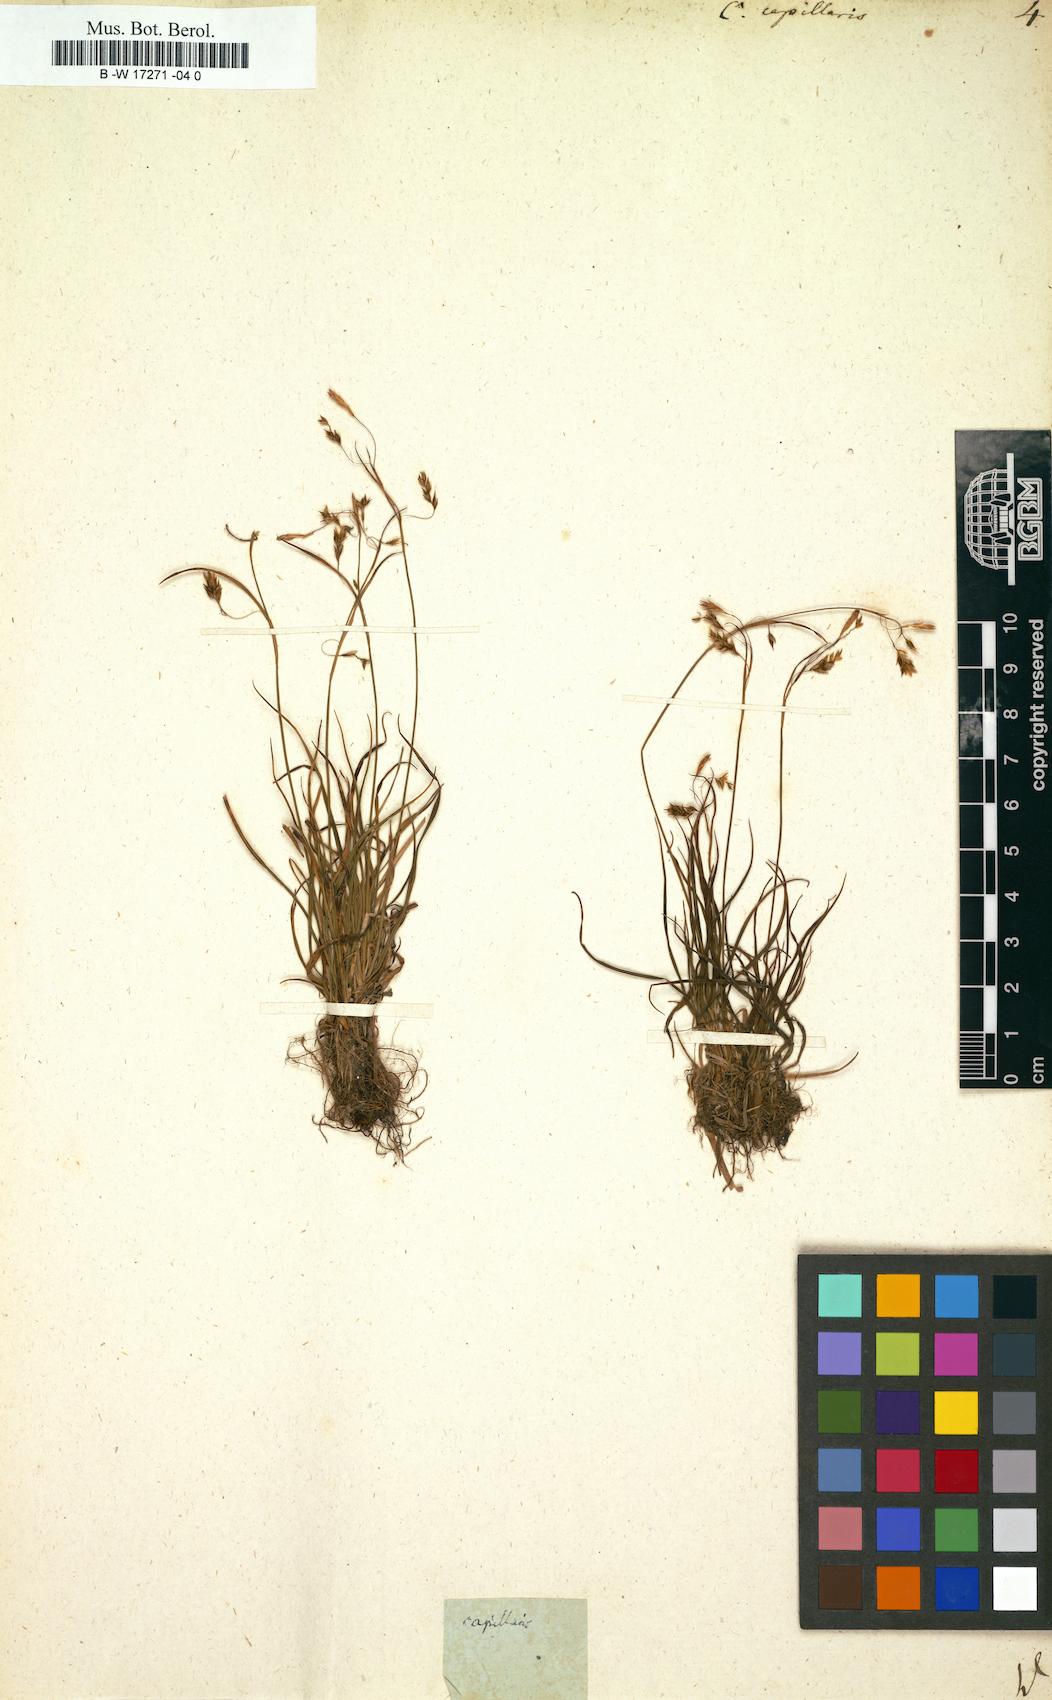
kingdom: Plantae
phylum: Tracheophyta
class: Liliopsida
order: Poales
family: Cyperaceae
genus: Carex
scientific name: Carex capillaris
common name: Hair sedge
